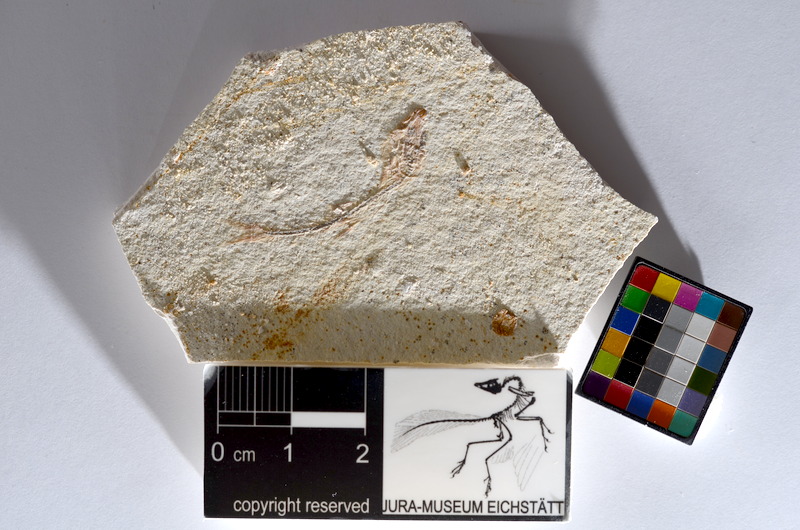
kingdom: Animalia
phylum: Chordata
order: Salmoniformes
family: Orthogonikleithridae
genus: Orthogonikleithrus
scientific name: Orthogonikleithrus hoelli
